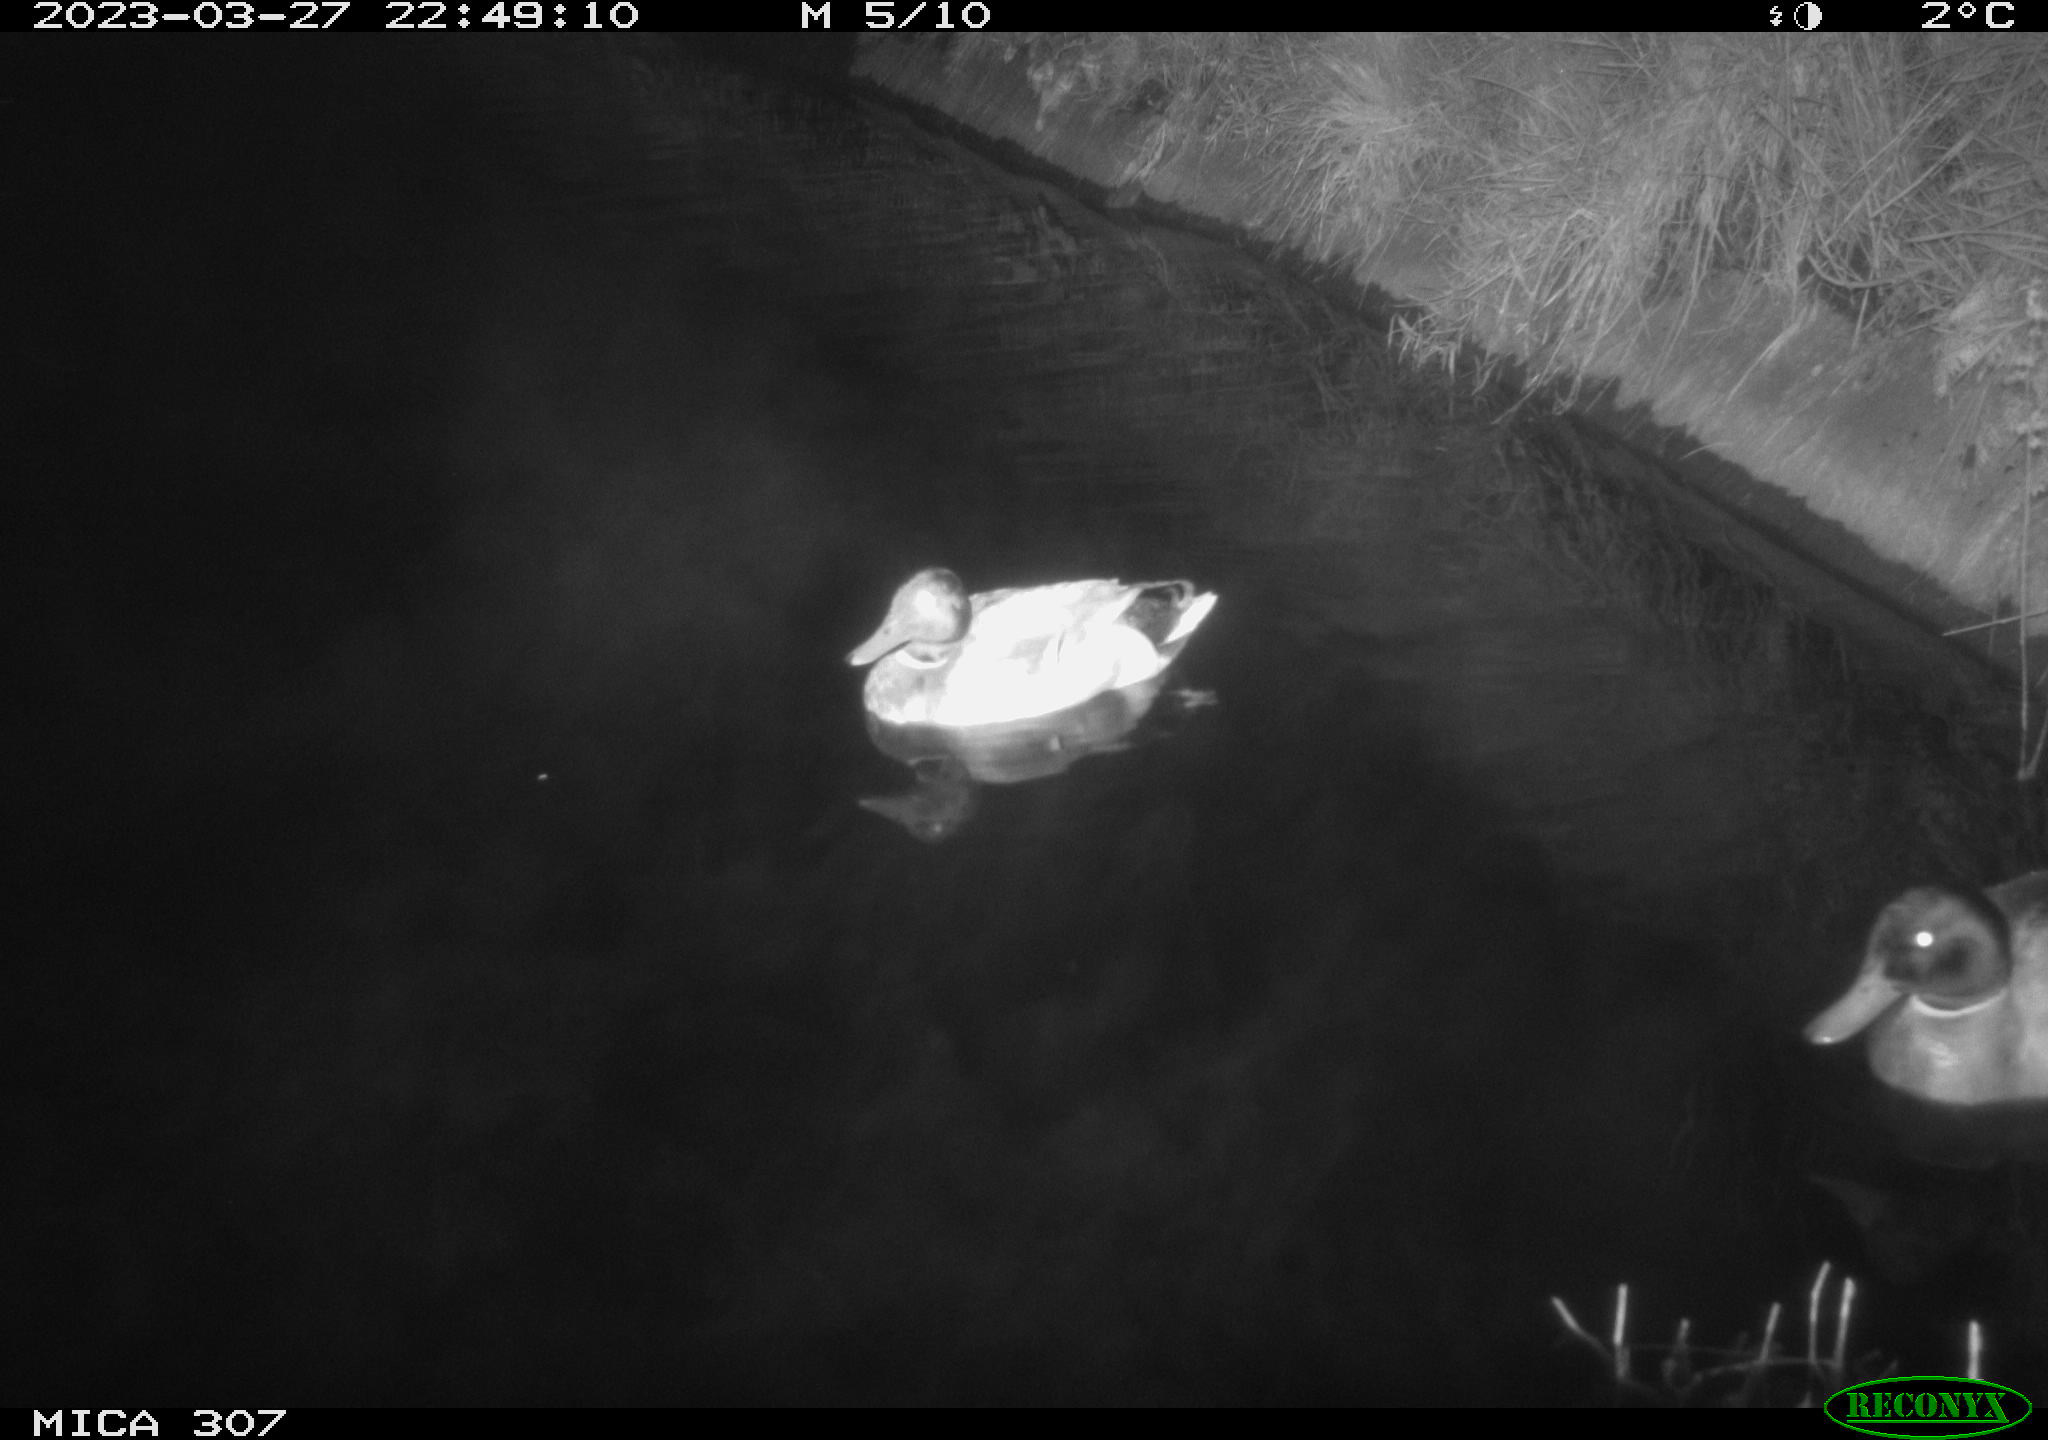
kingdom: Animalia
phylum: Chordata
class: Aves
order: Anseriformes
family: Anatidae
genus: Anas
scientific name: Anas
